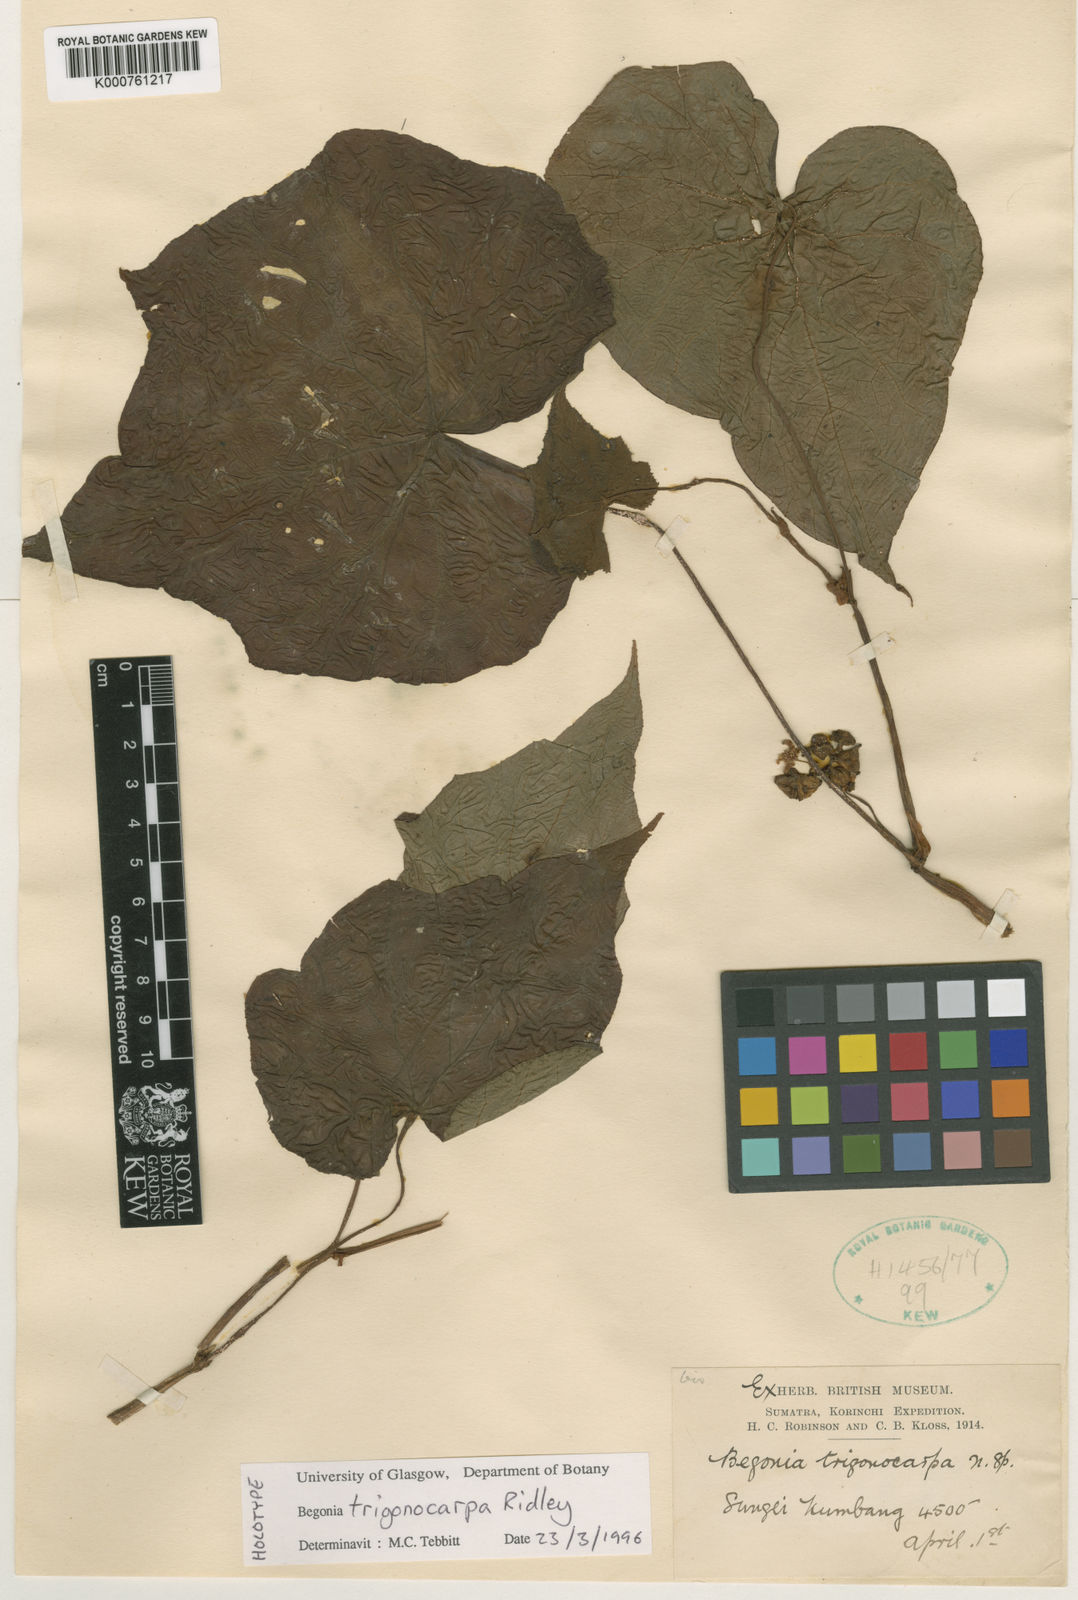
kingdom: Plantae
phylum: Tracheophyta
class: Magnoliopsida
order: Cucurbitales
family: Begoniaceae
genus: Begonia
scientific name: Begonia multangula
